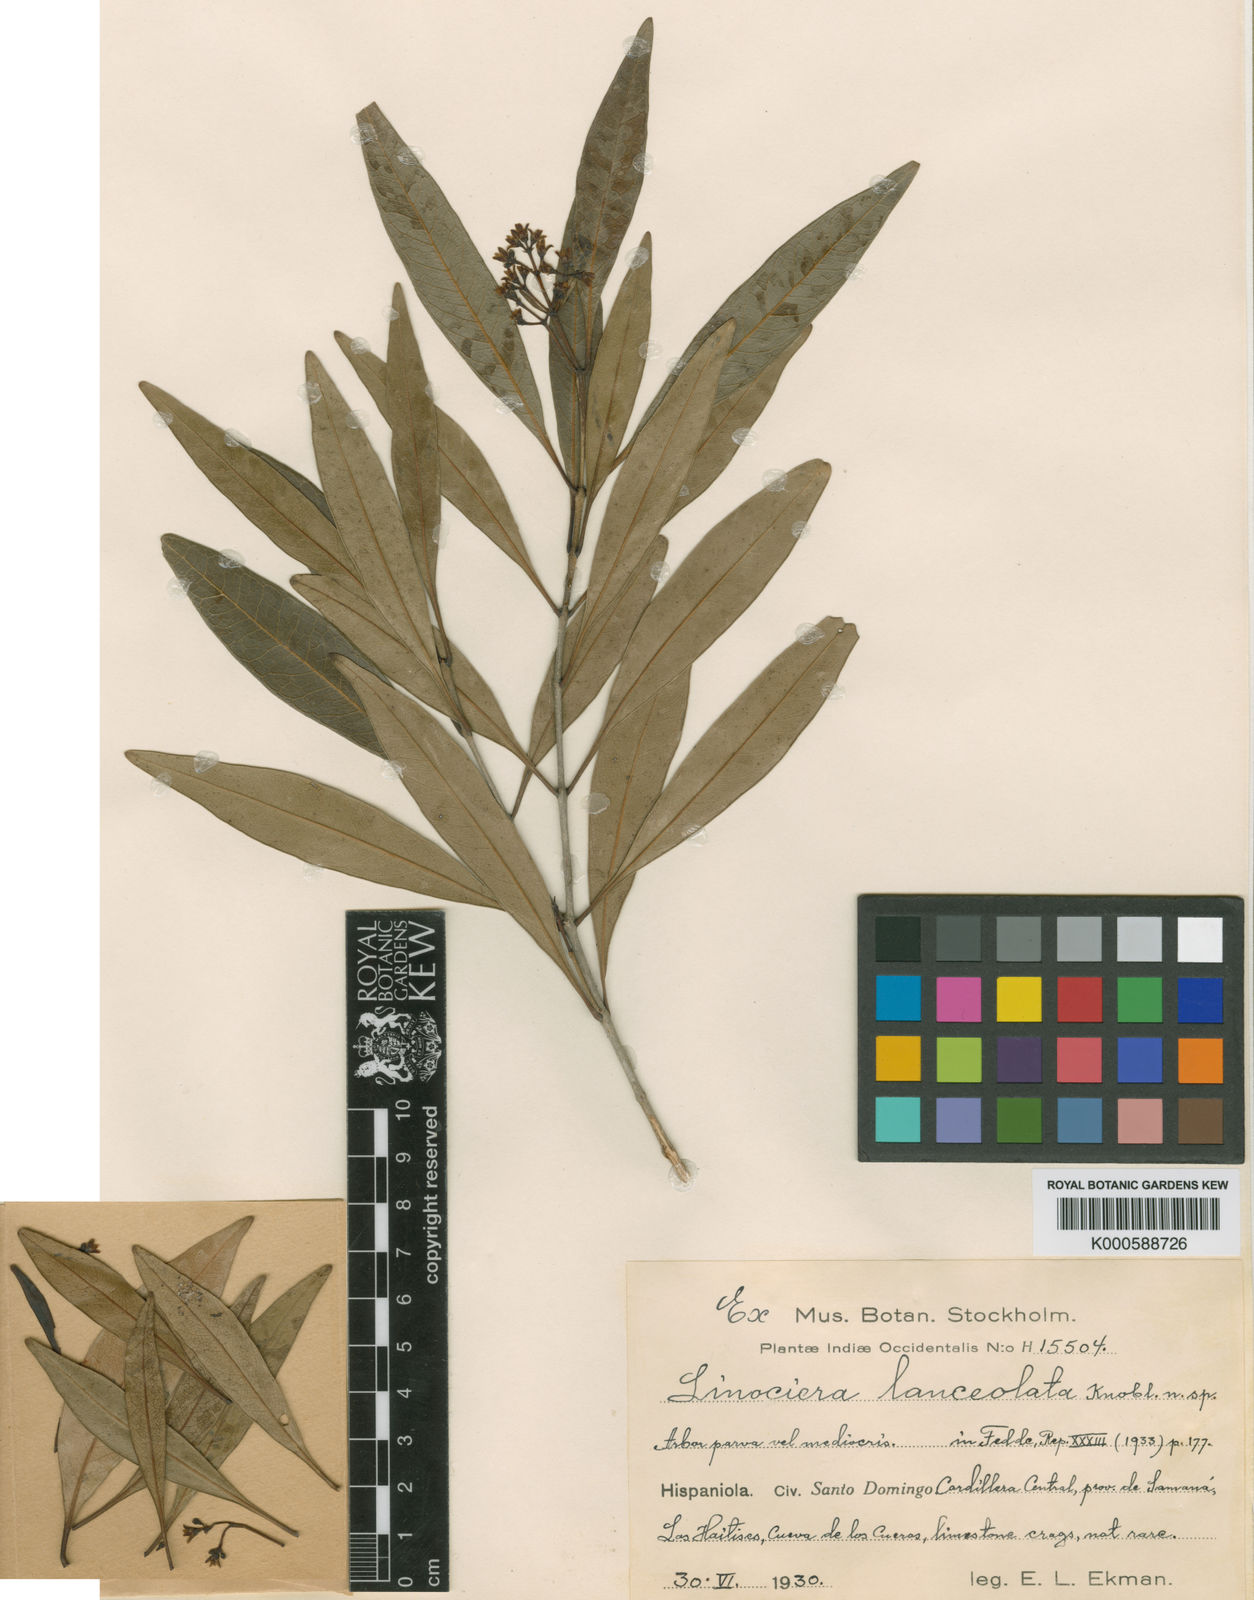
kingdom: Plantae
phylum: Tracheophyta
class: Magnoliopsida
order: Lamiales
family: Oleaceae
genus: Chionanthus
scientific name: Chionanthus bumelioides
